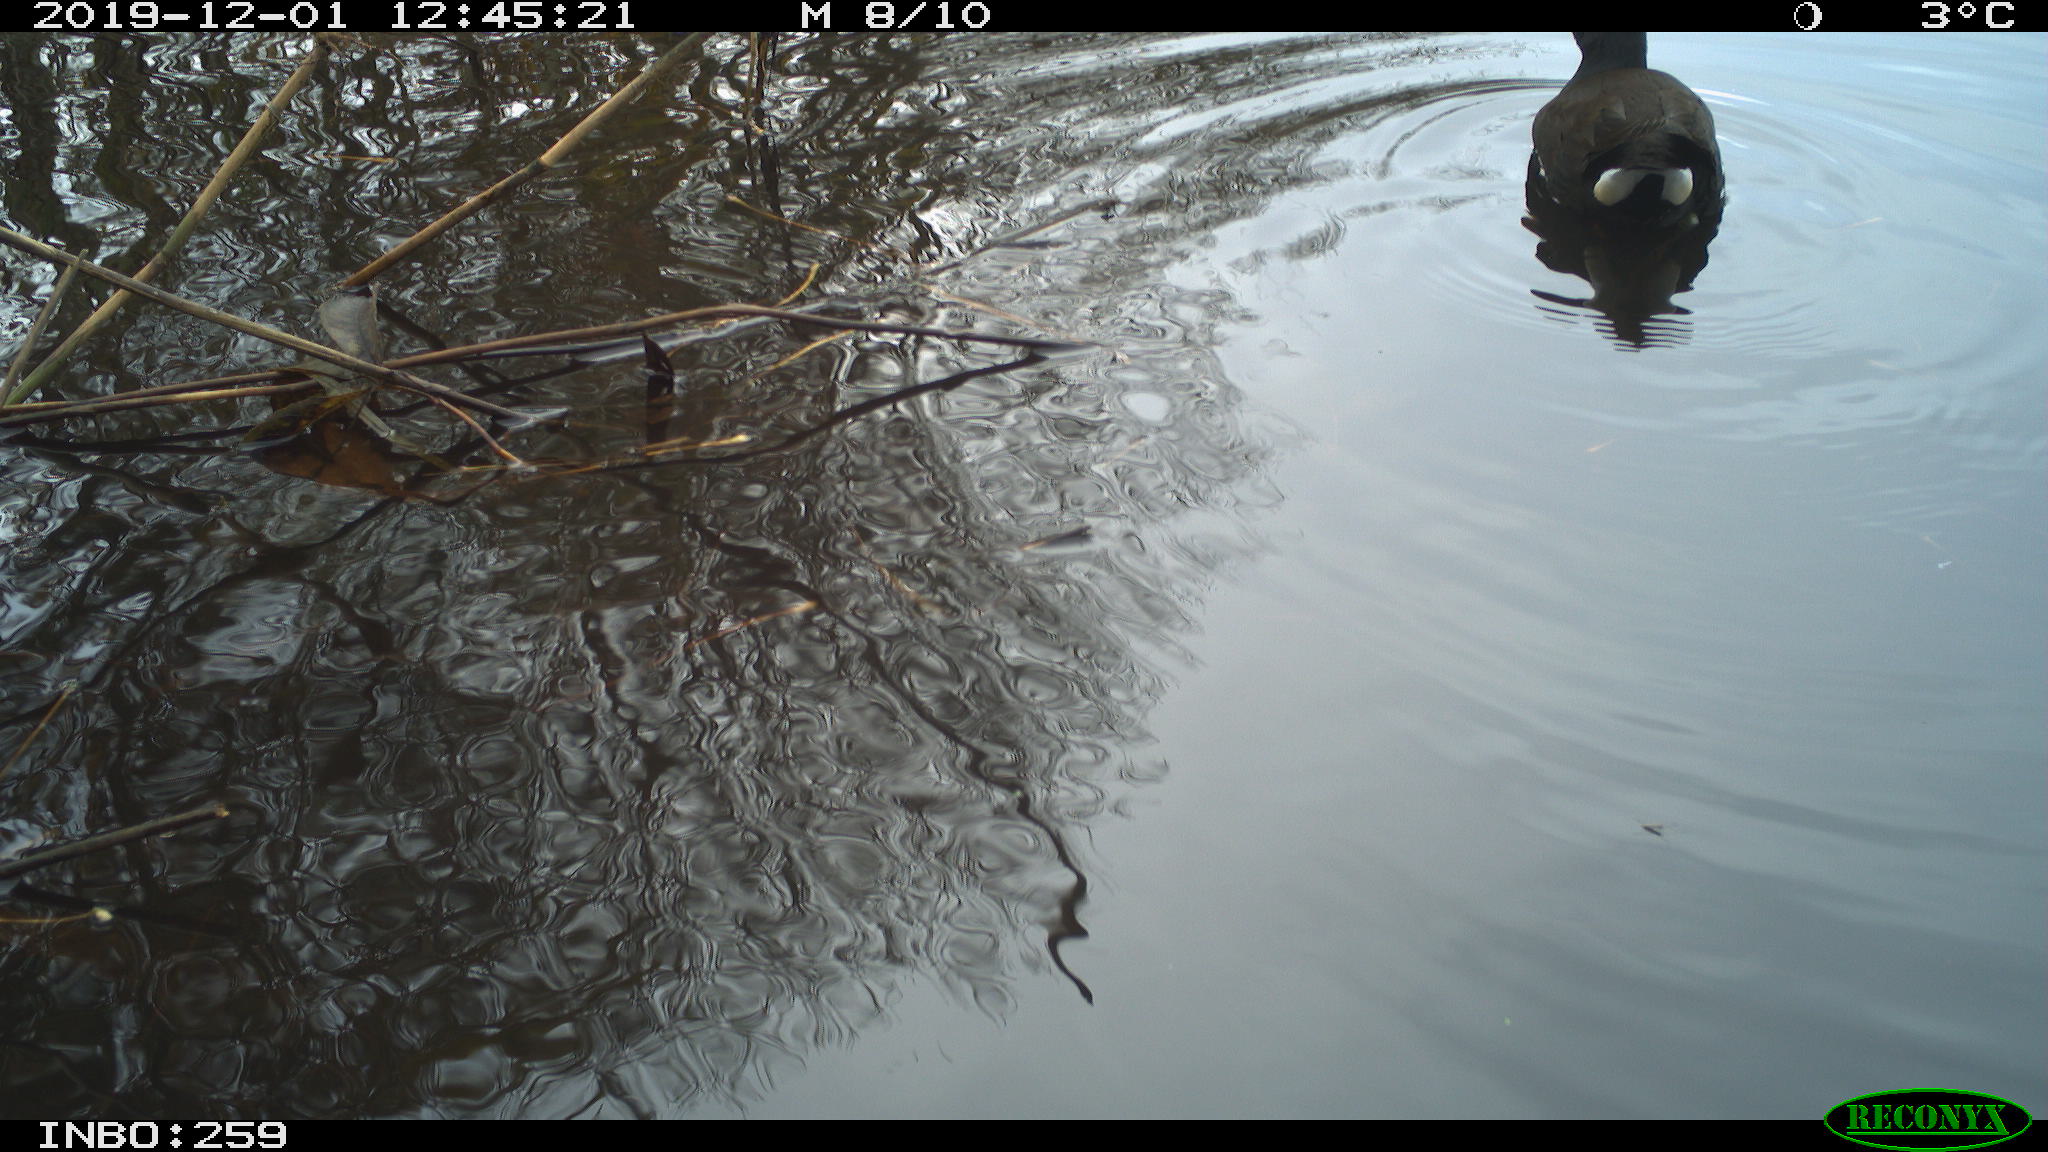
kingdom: Animalia
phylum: Chordata
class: Aves
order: Gruiformes
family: Rallidae
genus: Gallinula
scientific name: Gallinula chloropus
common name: Common moorhen
